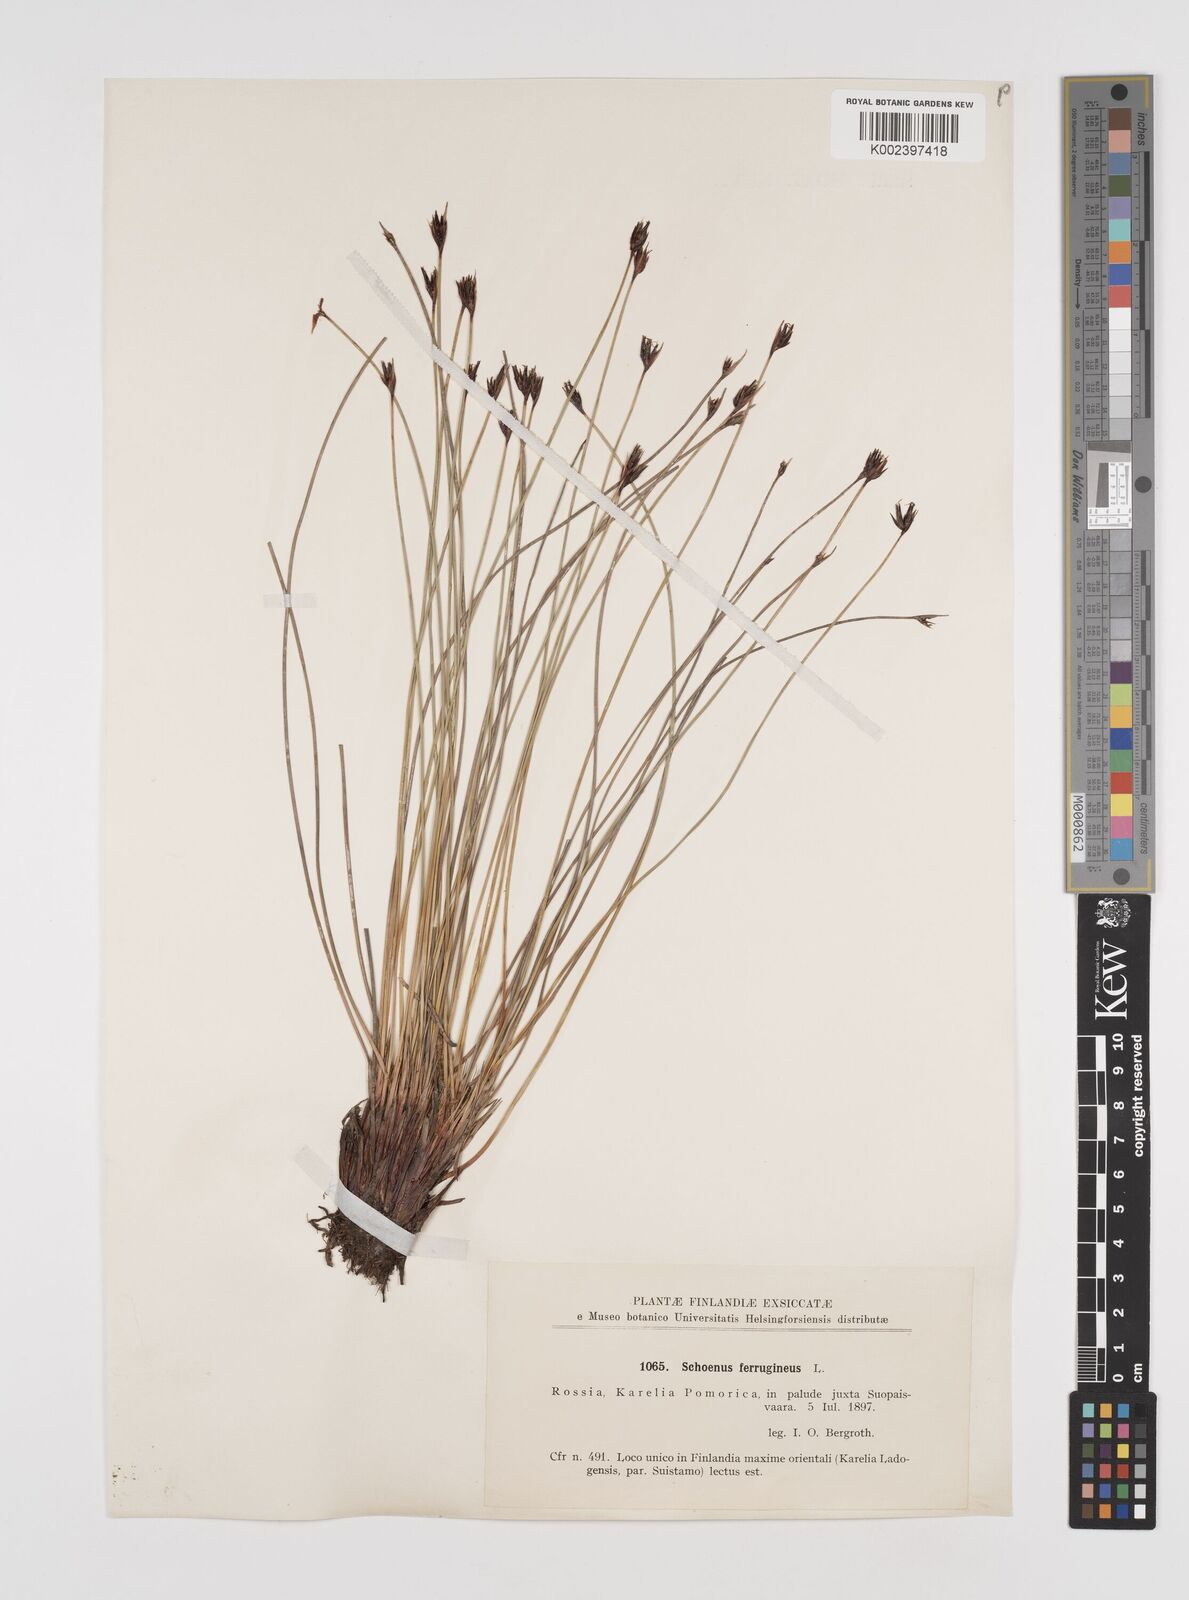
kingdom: Plantae
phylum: Tracheophyta
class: Liliopsida
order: Poales
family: Cyperaceae
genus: Schoenus
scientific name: Schoenus ferrugineus
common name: Brown bog-rush
